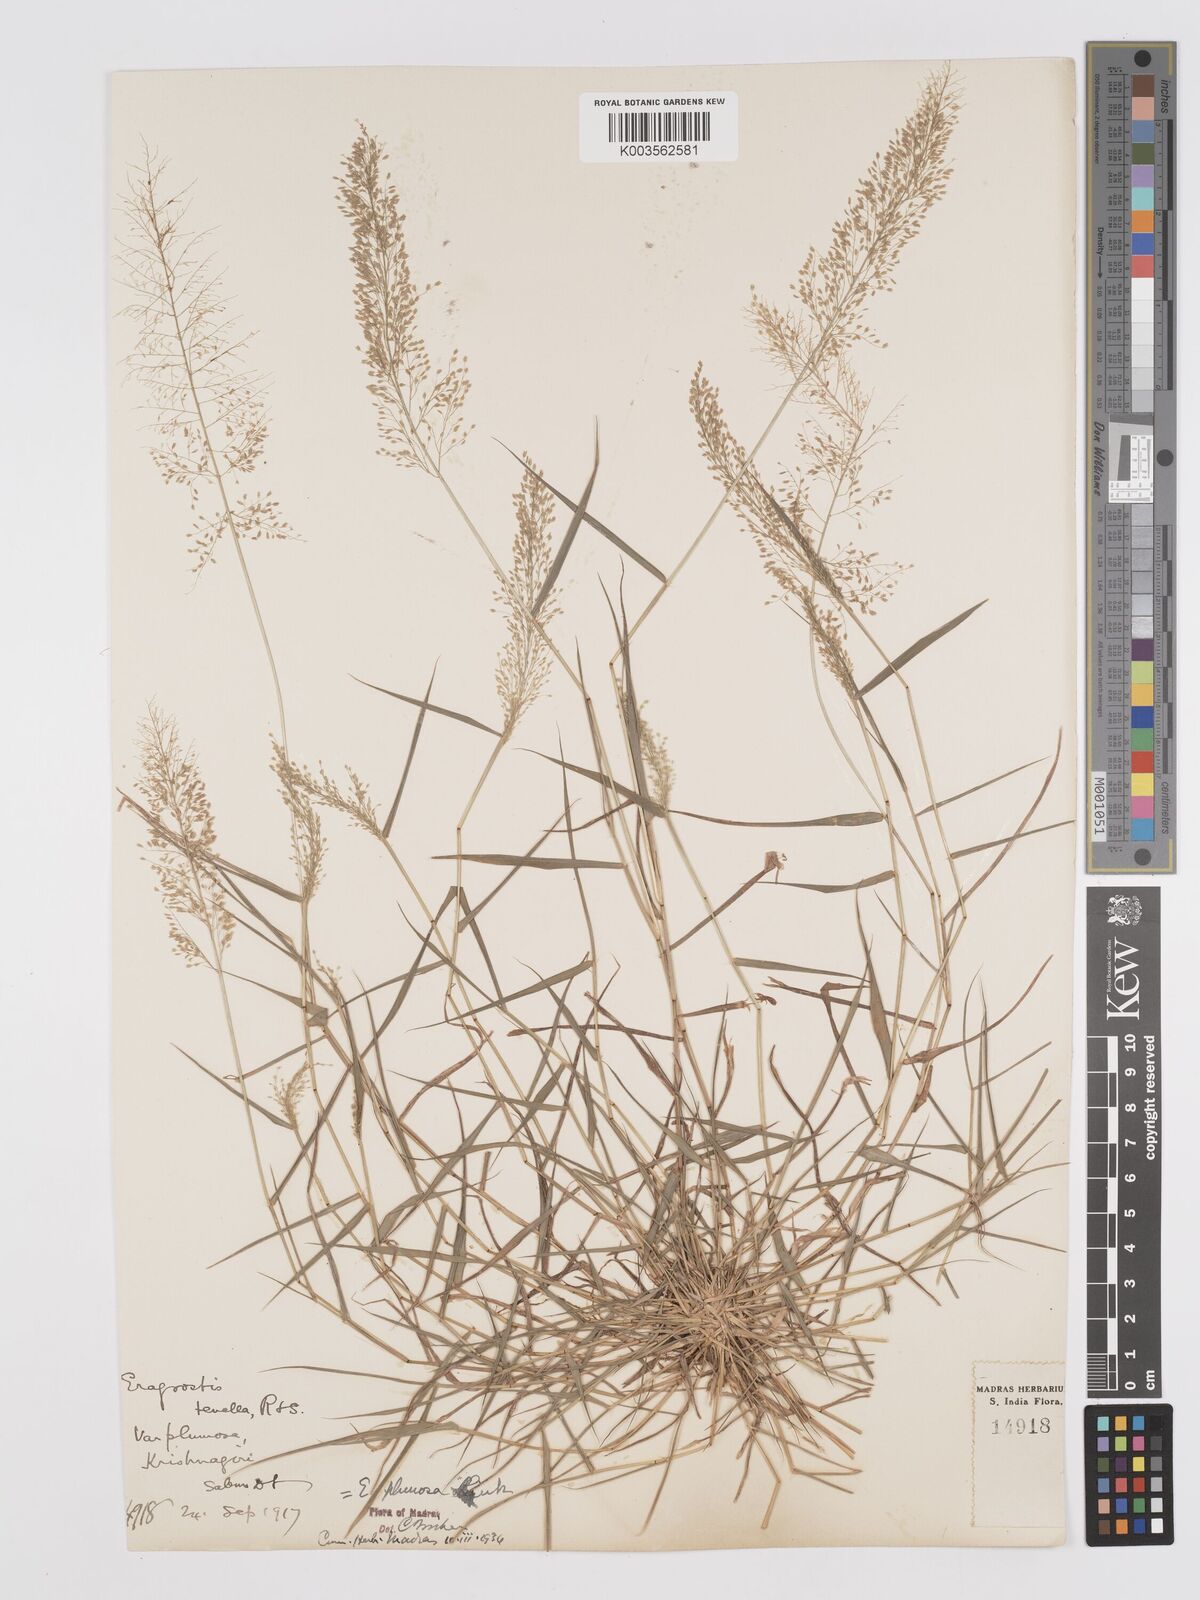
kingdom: Plantae
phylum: Tracheophyta
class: Liliopsida
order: Poales
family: Poaceae
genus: Eragrostis
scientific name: Eragrostis tenella
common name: Japanese lovegrass
